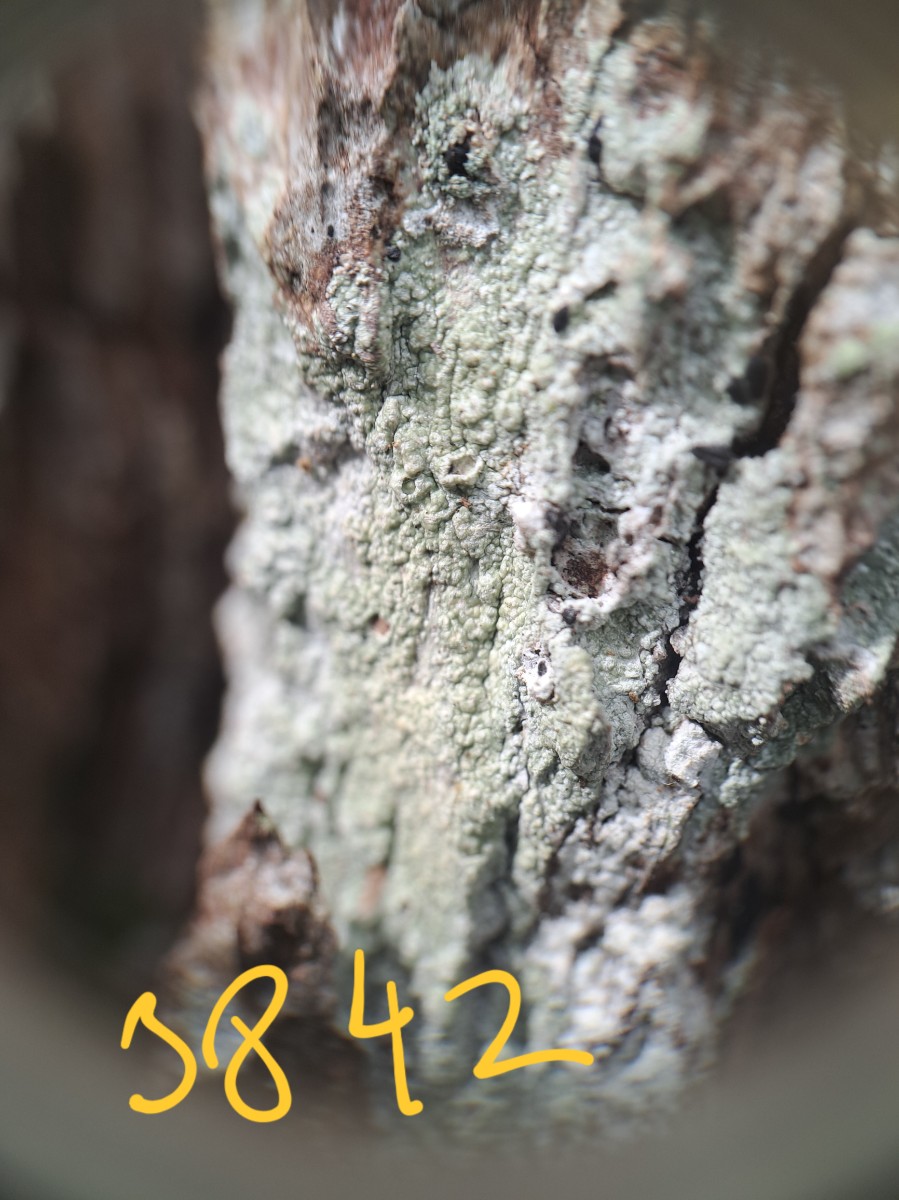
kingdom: Fungi
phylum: Ascomycota
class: Lecanoromycetes
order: Pertusariales
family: Pertusariaceae
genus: Pertusaria
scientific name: Pertusaria hymenea
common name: åben prikvortelav
